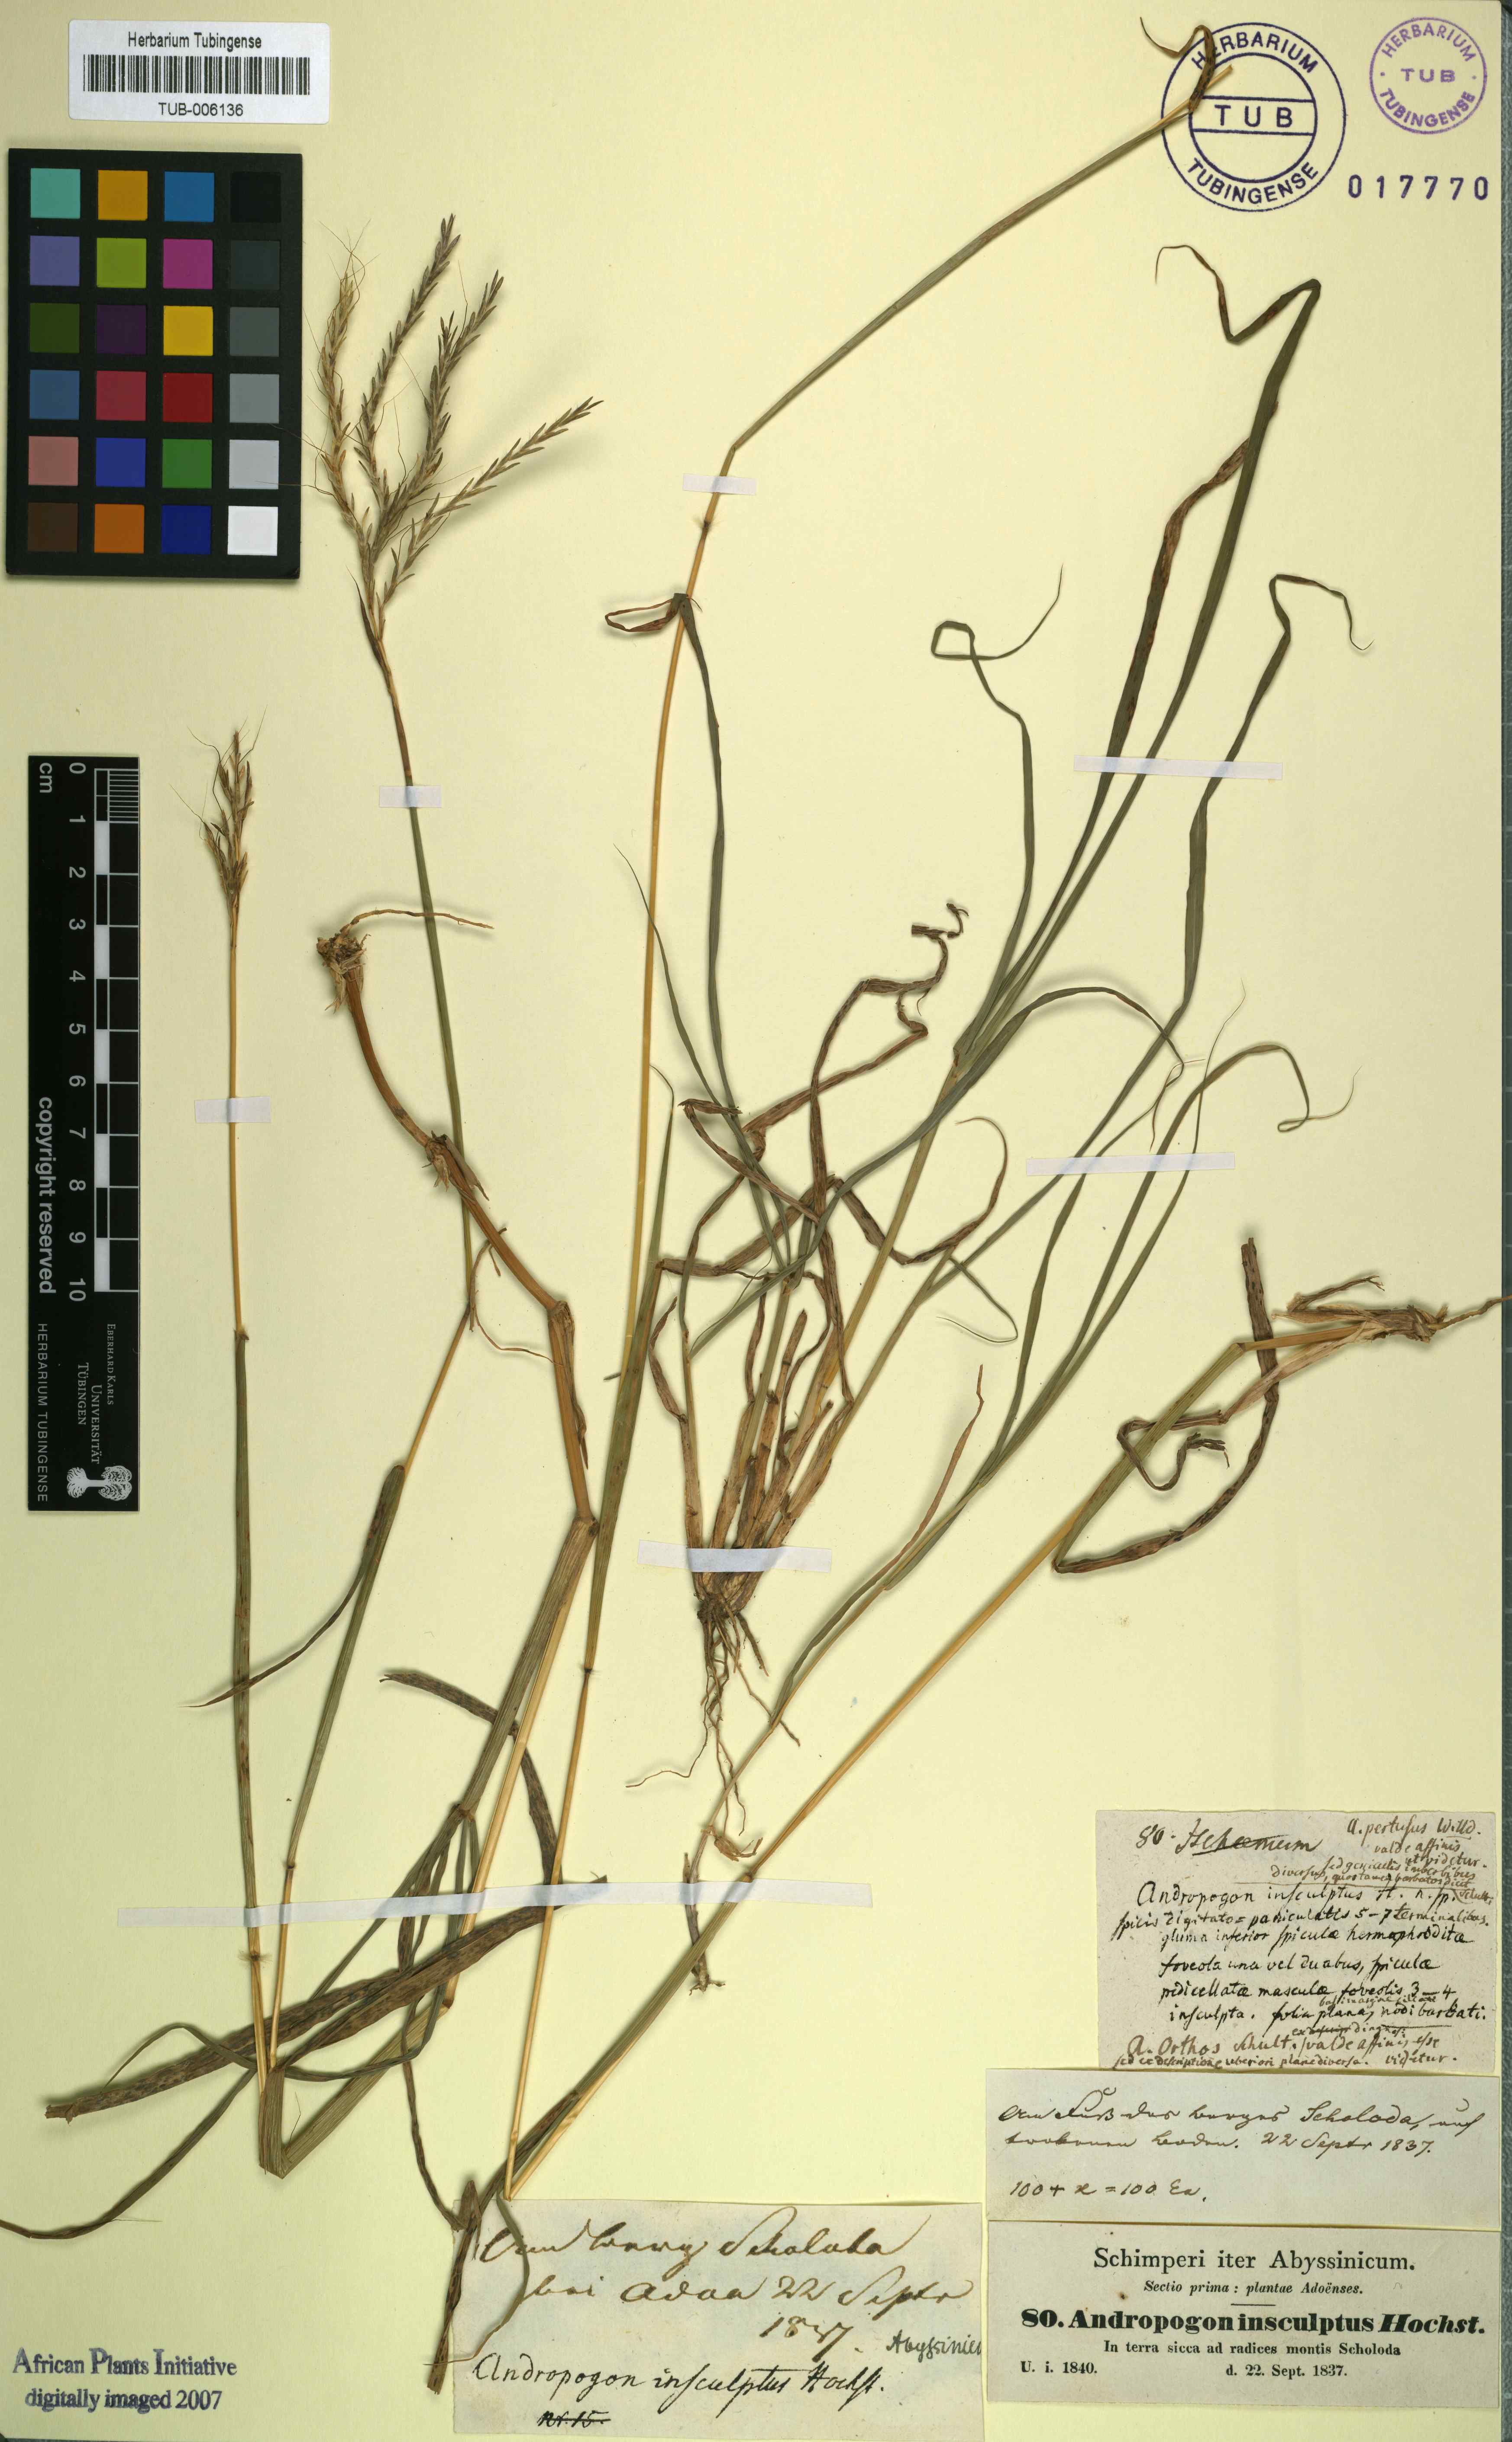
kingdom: Plantae
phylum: Tracheophyta
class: Liliopsida
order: Poales
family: Poaceae
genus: Bothriochloa
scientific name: Bothriochloa insculpta
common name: Creeping-bluegrass
